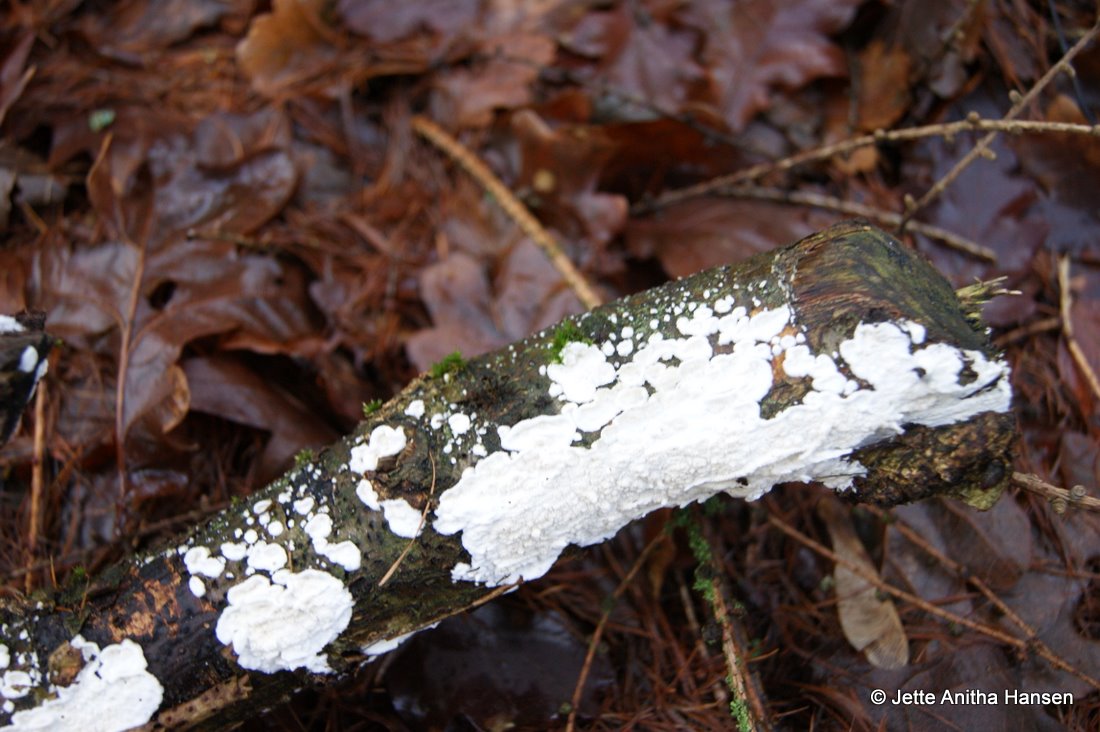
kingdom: Fungi
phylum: Basidiomycota
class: Agaricomycetes
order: Polyporales
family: Irpicaceae
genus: Byssomerulius
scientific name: Byssomerulius corium
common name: læder-åresvamp
